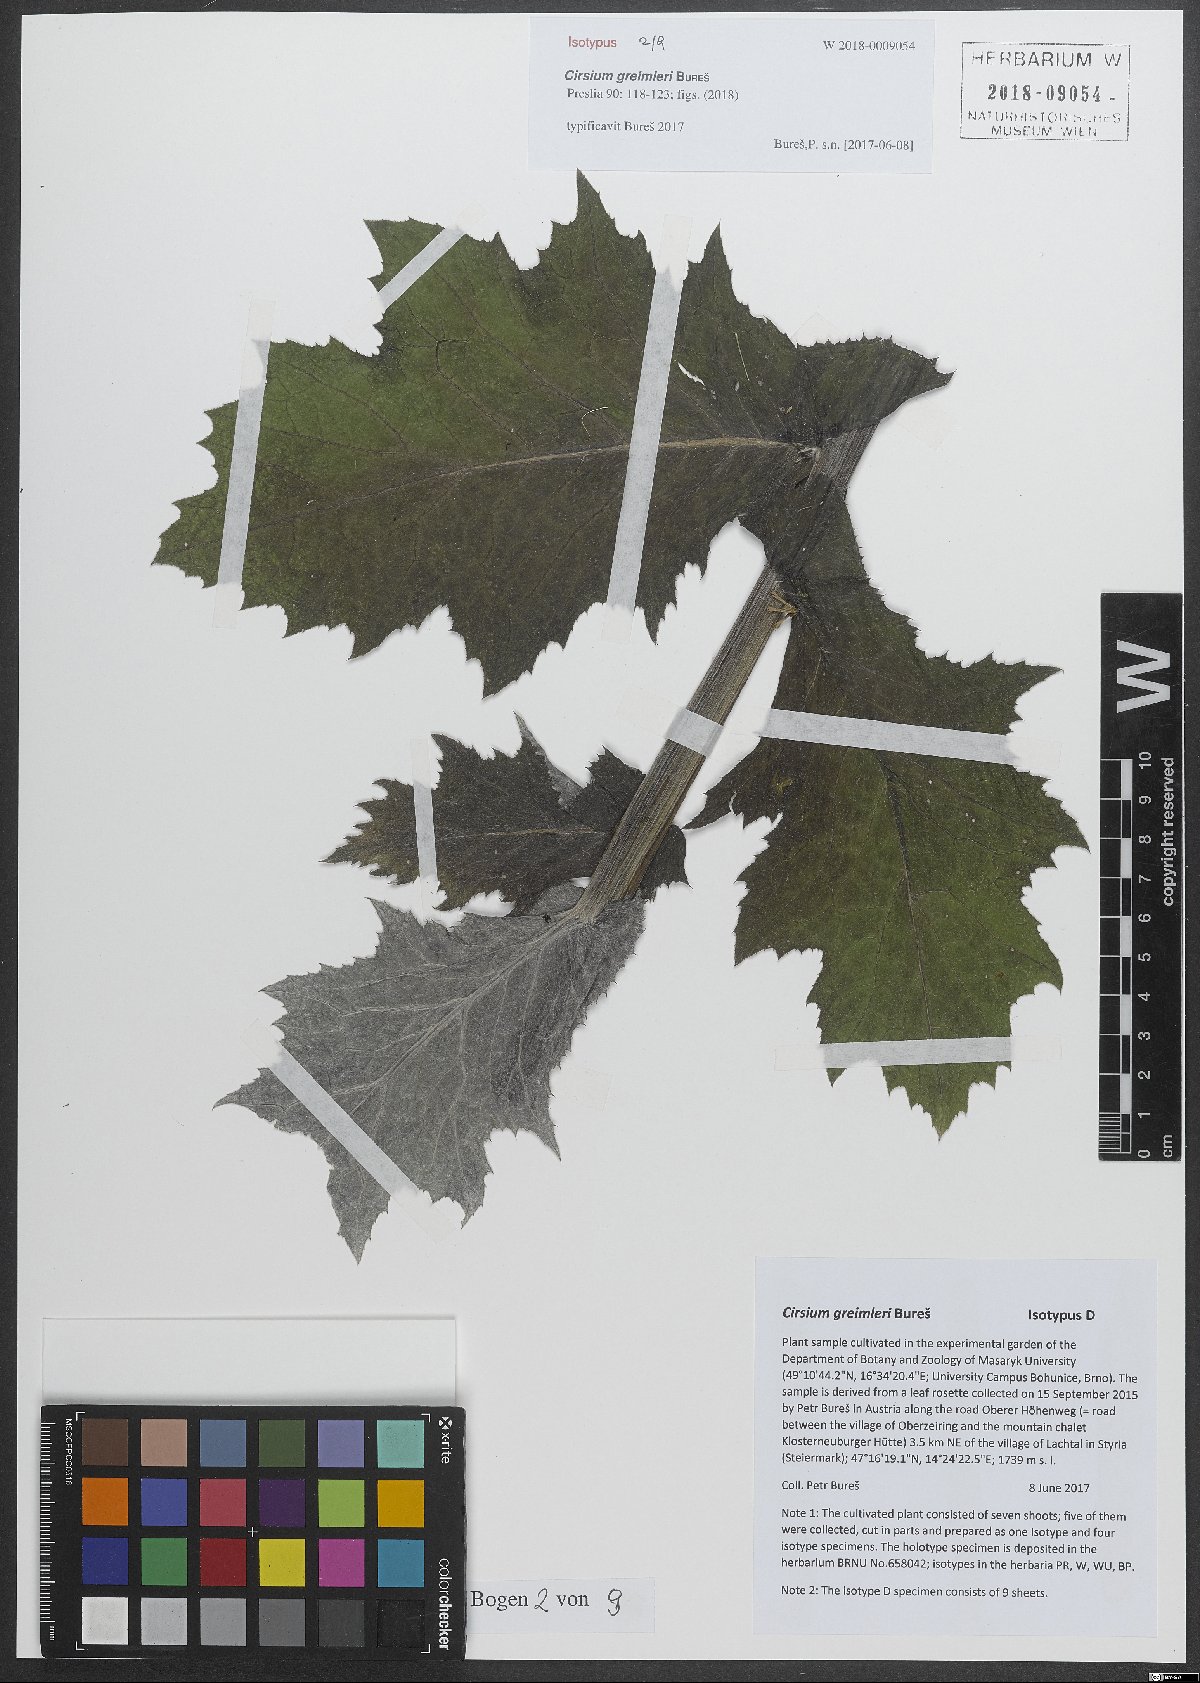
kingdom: Plantae
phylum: Tracheophyta
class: Magnoliopsida
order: Asterales
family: Asteraceae
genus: Cirsium
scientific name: Cirsium greimleri
